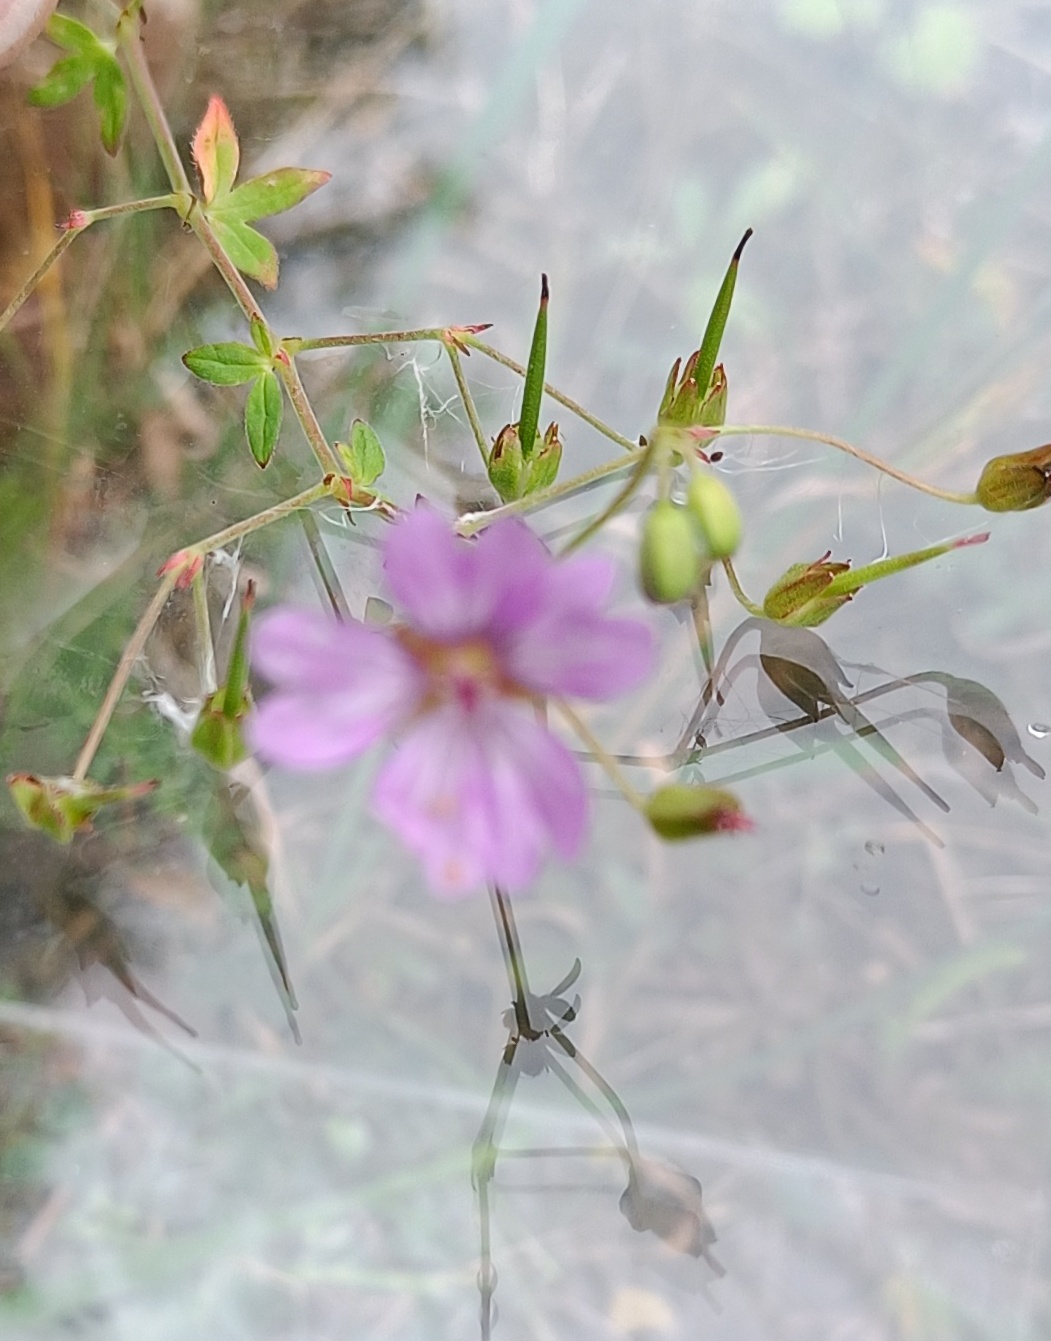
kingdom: Plantae
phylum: Tracheophyta
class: Magnoliopsida
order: Geraniales
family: Geraniaceae
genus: Geranium
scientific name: Geranium
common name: Storkenæbslægten
